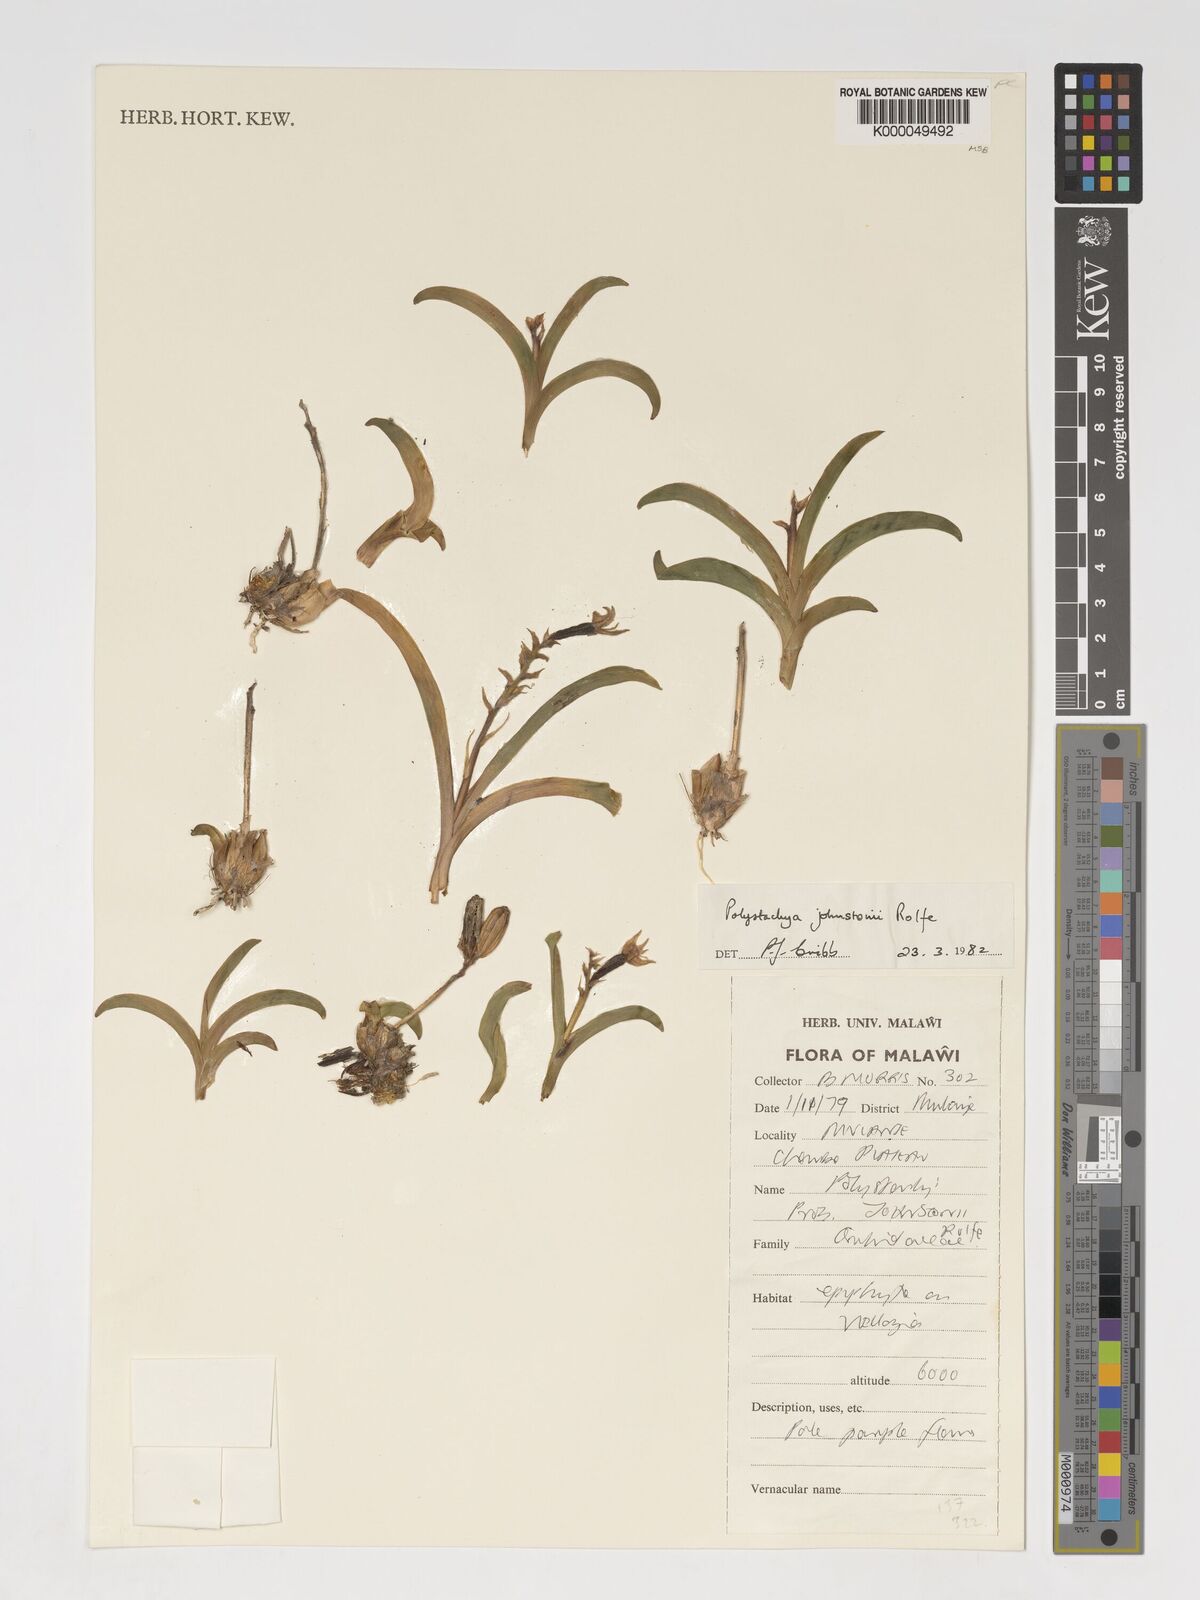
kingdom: Plantae
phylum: Tracheophyta
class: Liliopsida
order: Asparagales
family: Orchidaceae
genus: Polystachya
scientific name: Polystachya johnstonii
